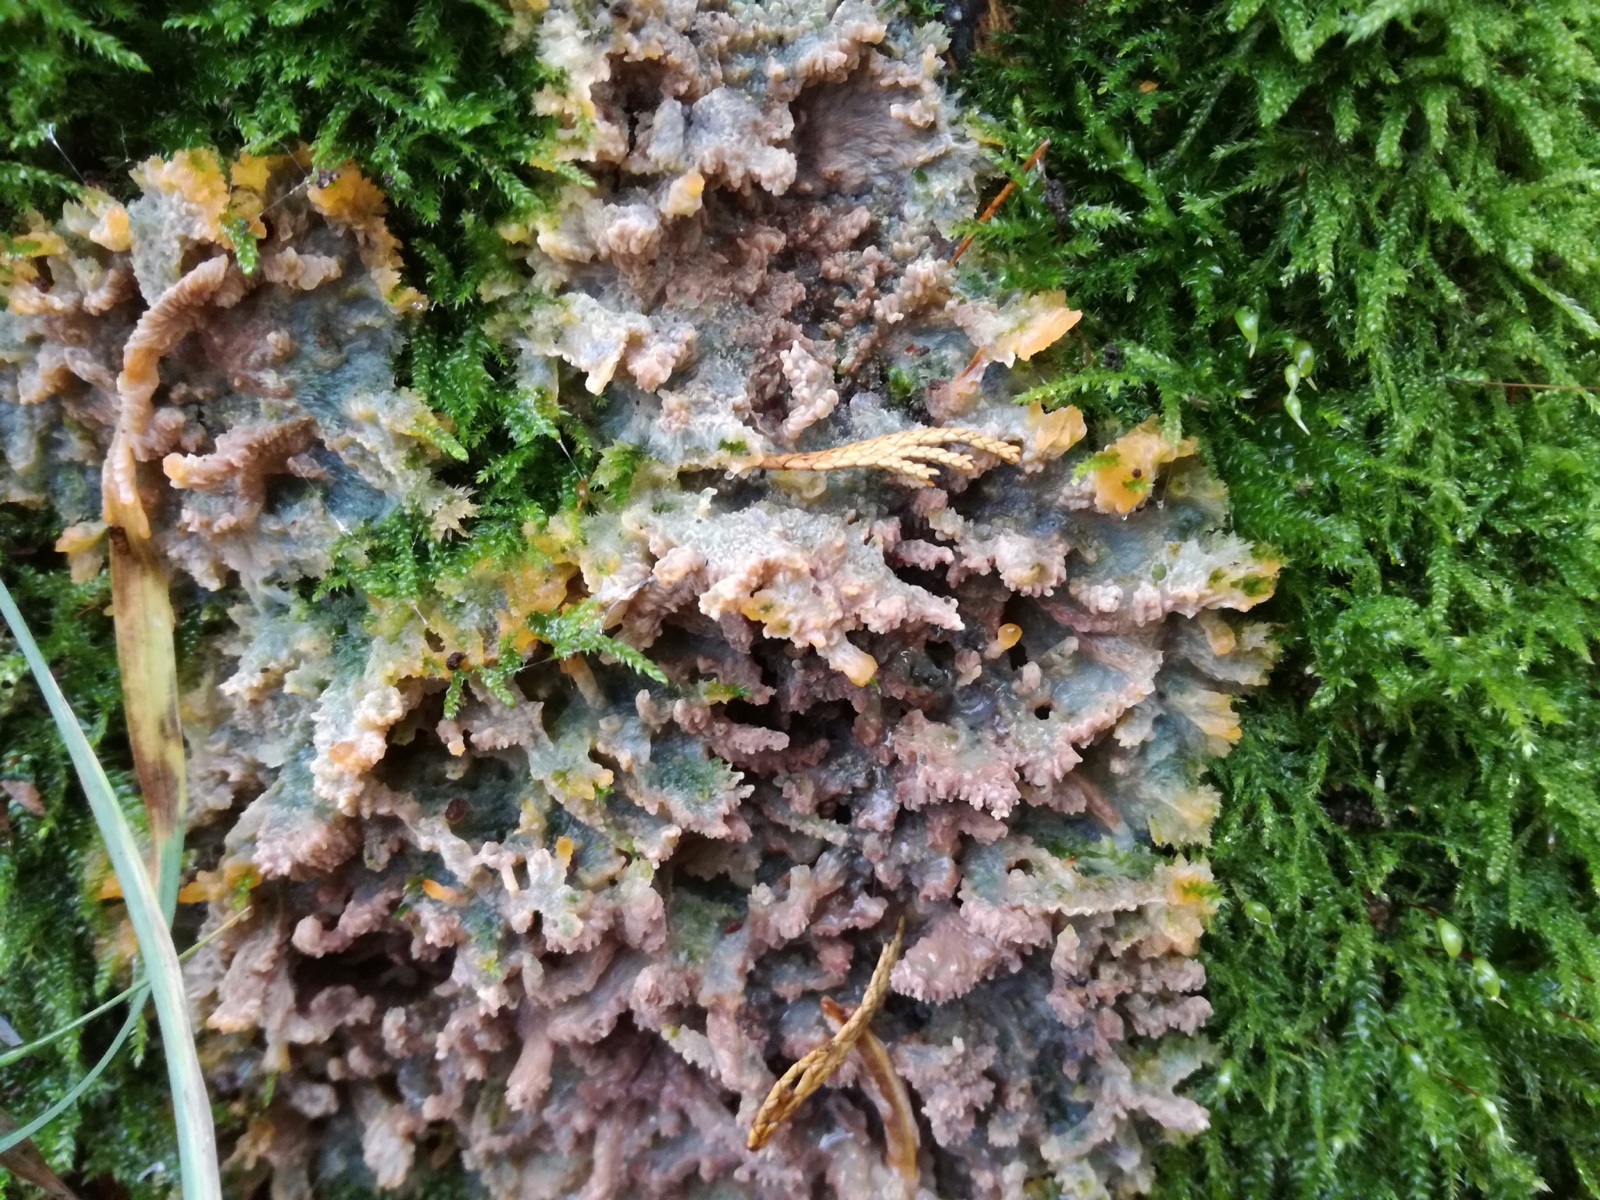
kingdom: Fungi
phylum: Basidiomycota
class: Agaricomycetes
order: Polyporales
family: Meruliaceae
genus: Phlebia
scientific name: Phlebia radiata
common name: stråle-åresvamp
